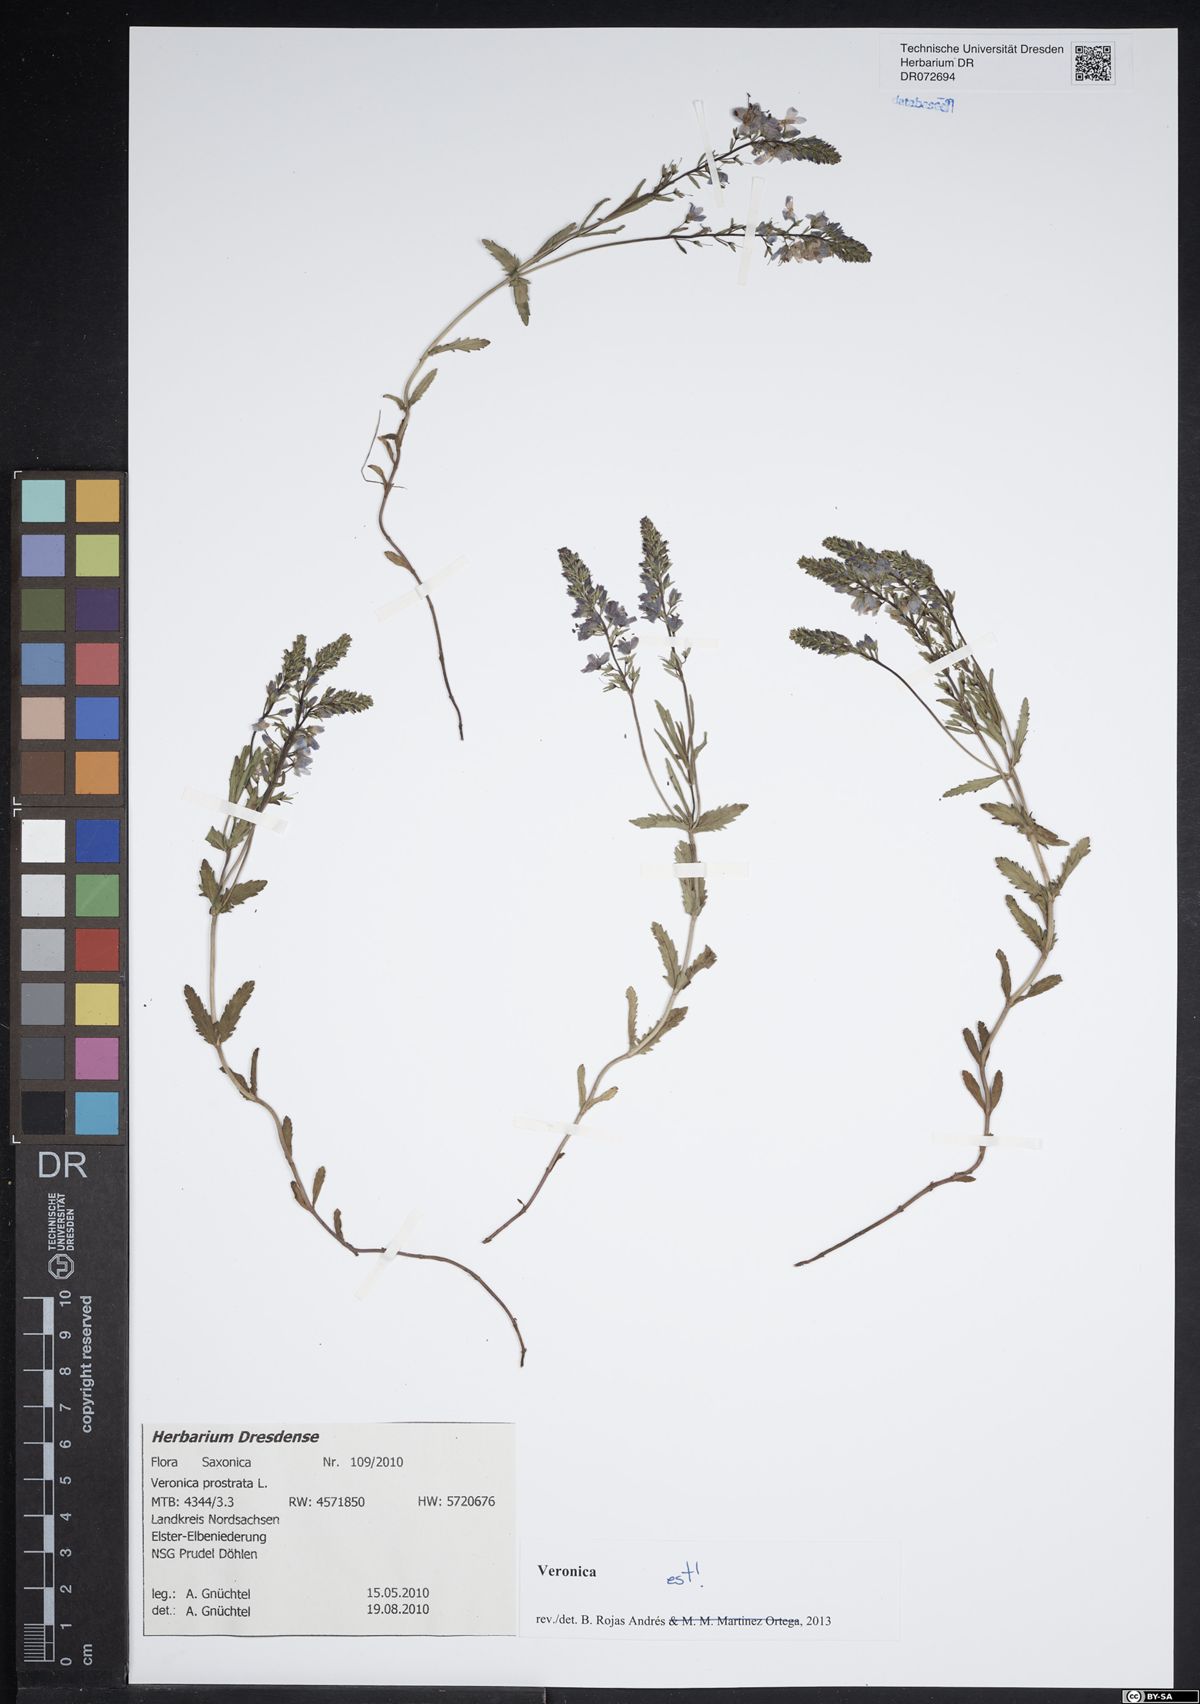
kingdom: Plantae
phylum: Tracheophyta
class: Magnoliopsida
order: Lamiales
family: Plantaginaceae
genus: Veronica
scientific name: Veronica prostrata
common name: Prostrate speedwell
